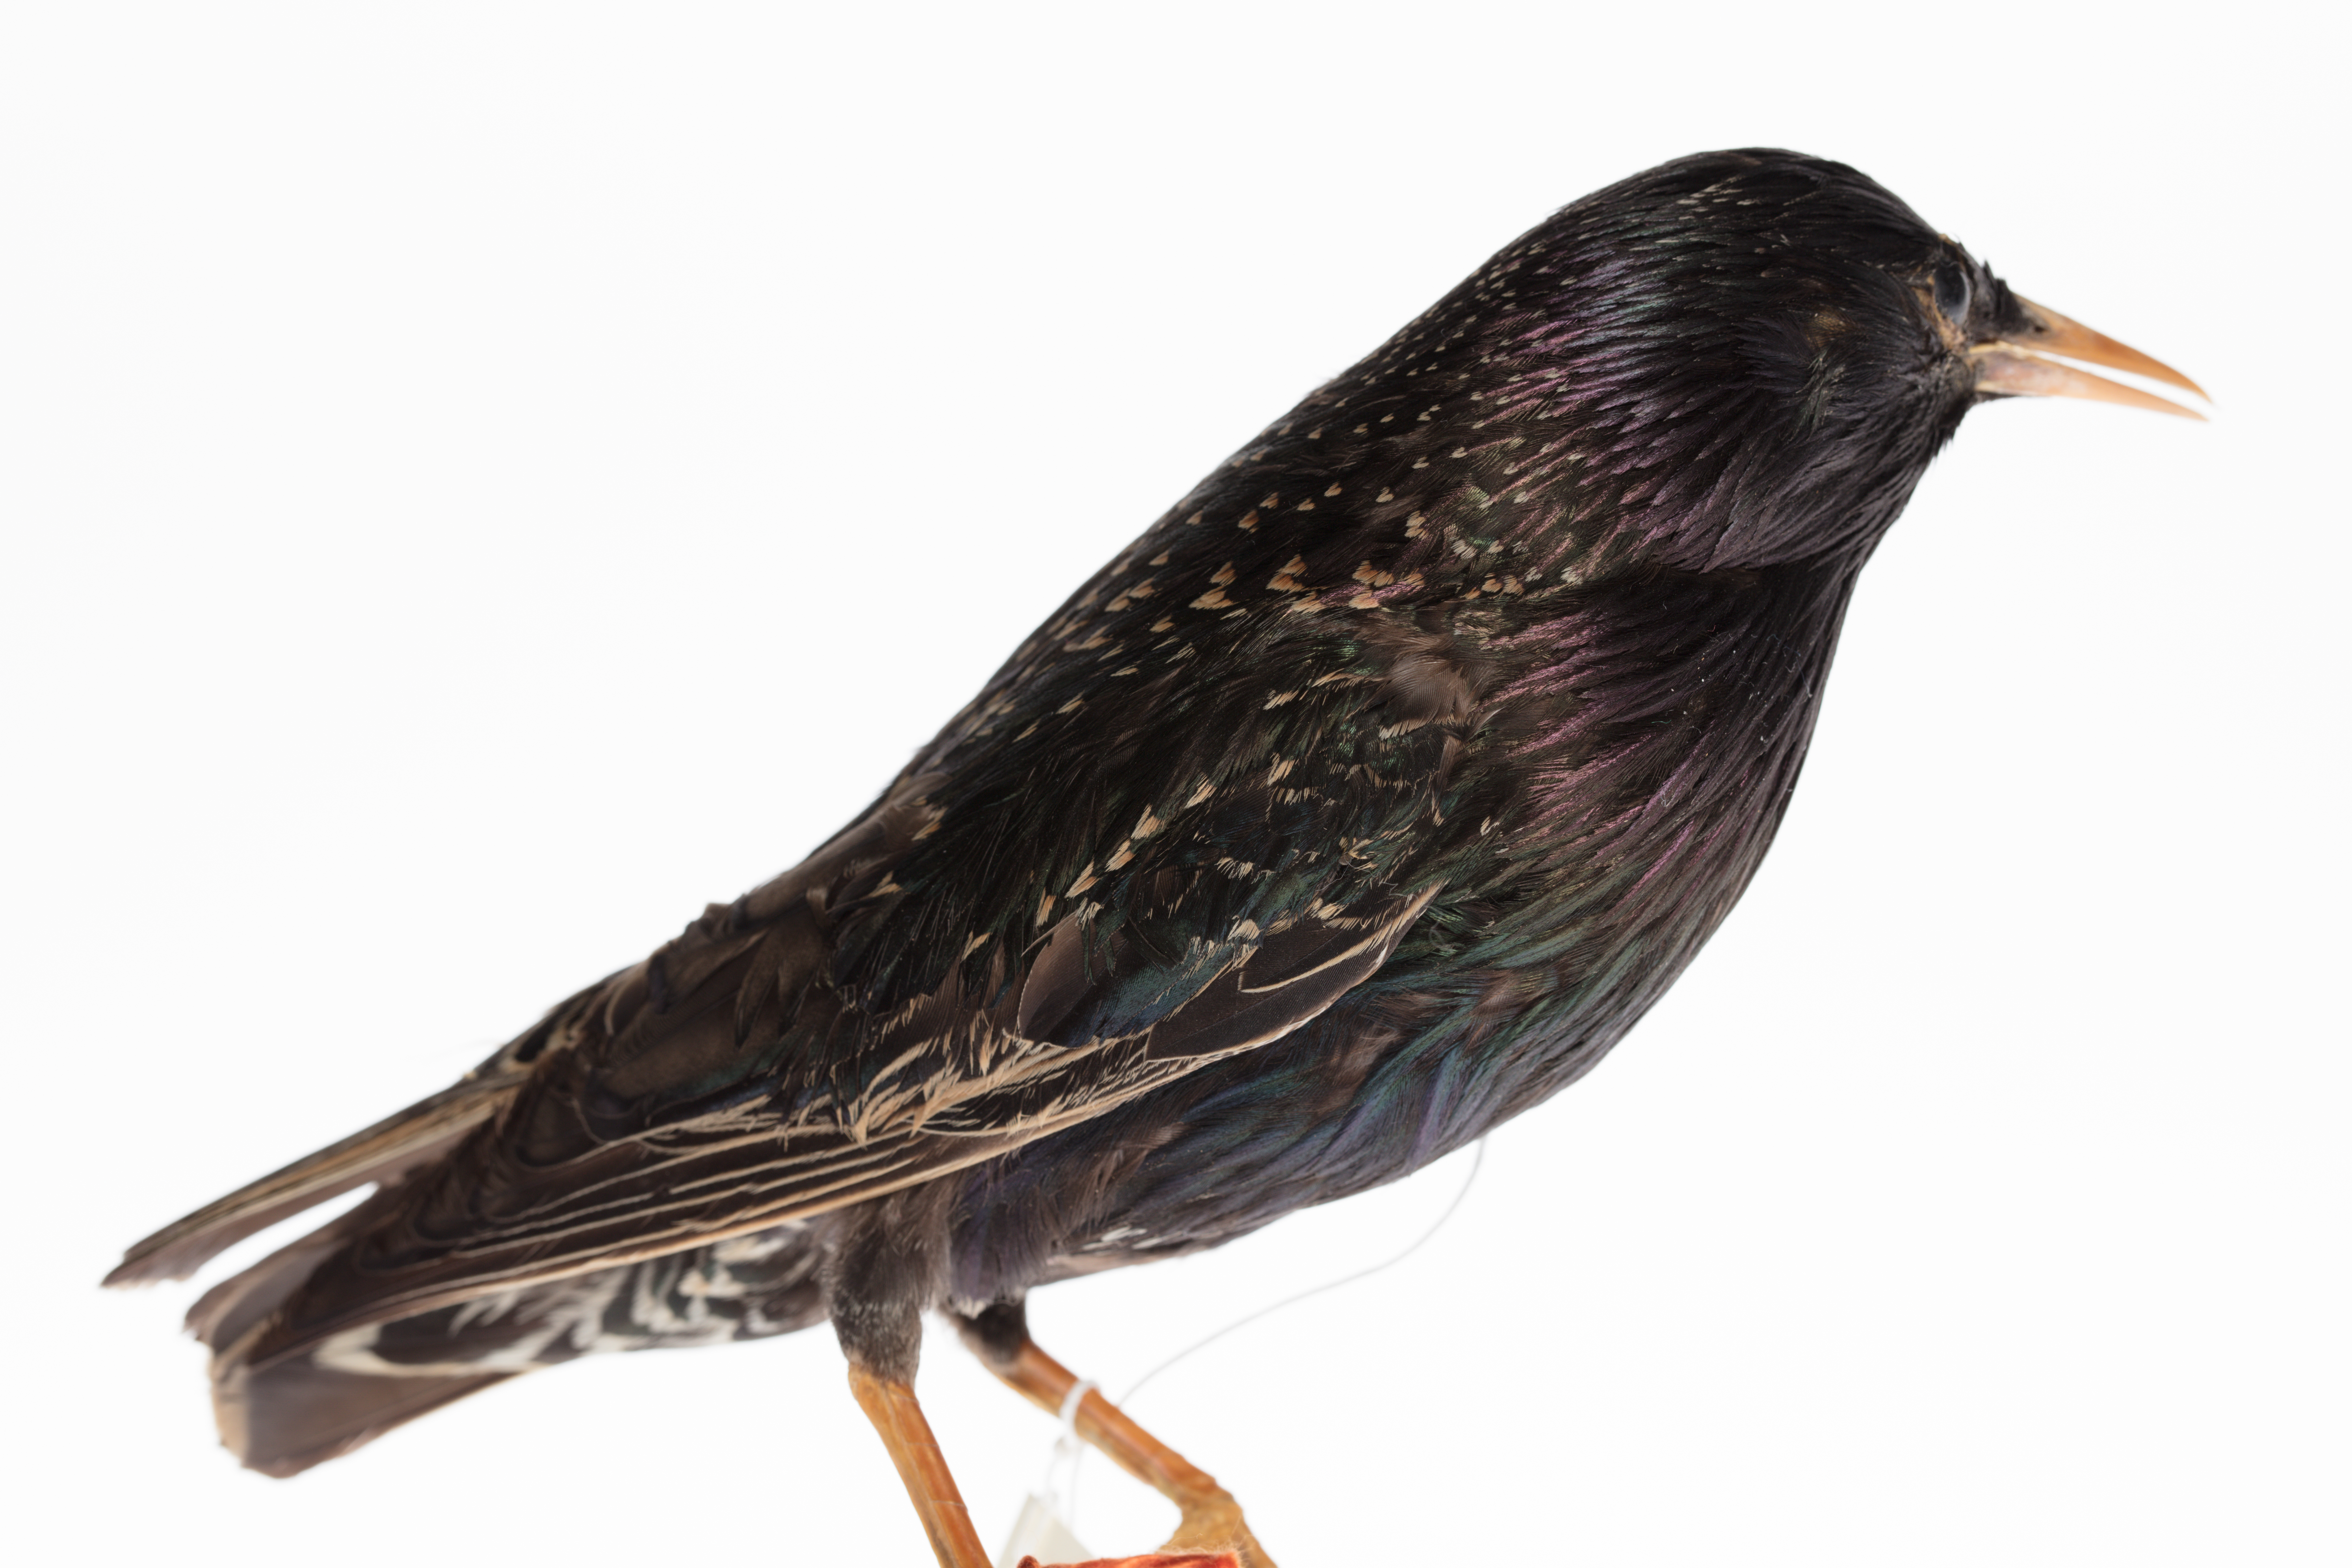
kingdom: Animalia
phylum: Chordata
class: Aves
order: Passeriformes
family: Sturnidae
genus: Sturnus
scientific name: Sturnus vulgaris
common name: Common starling
